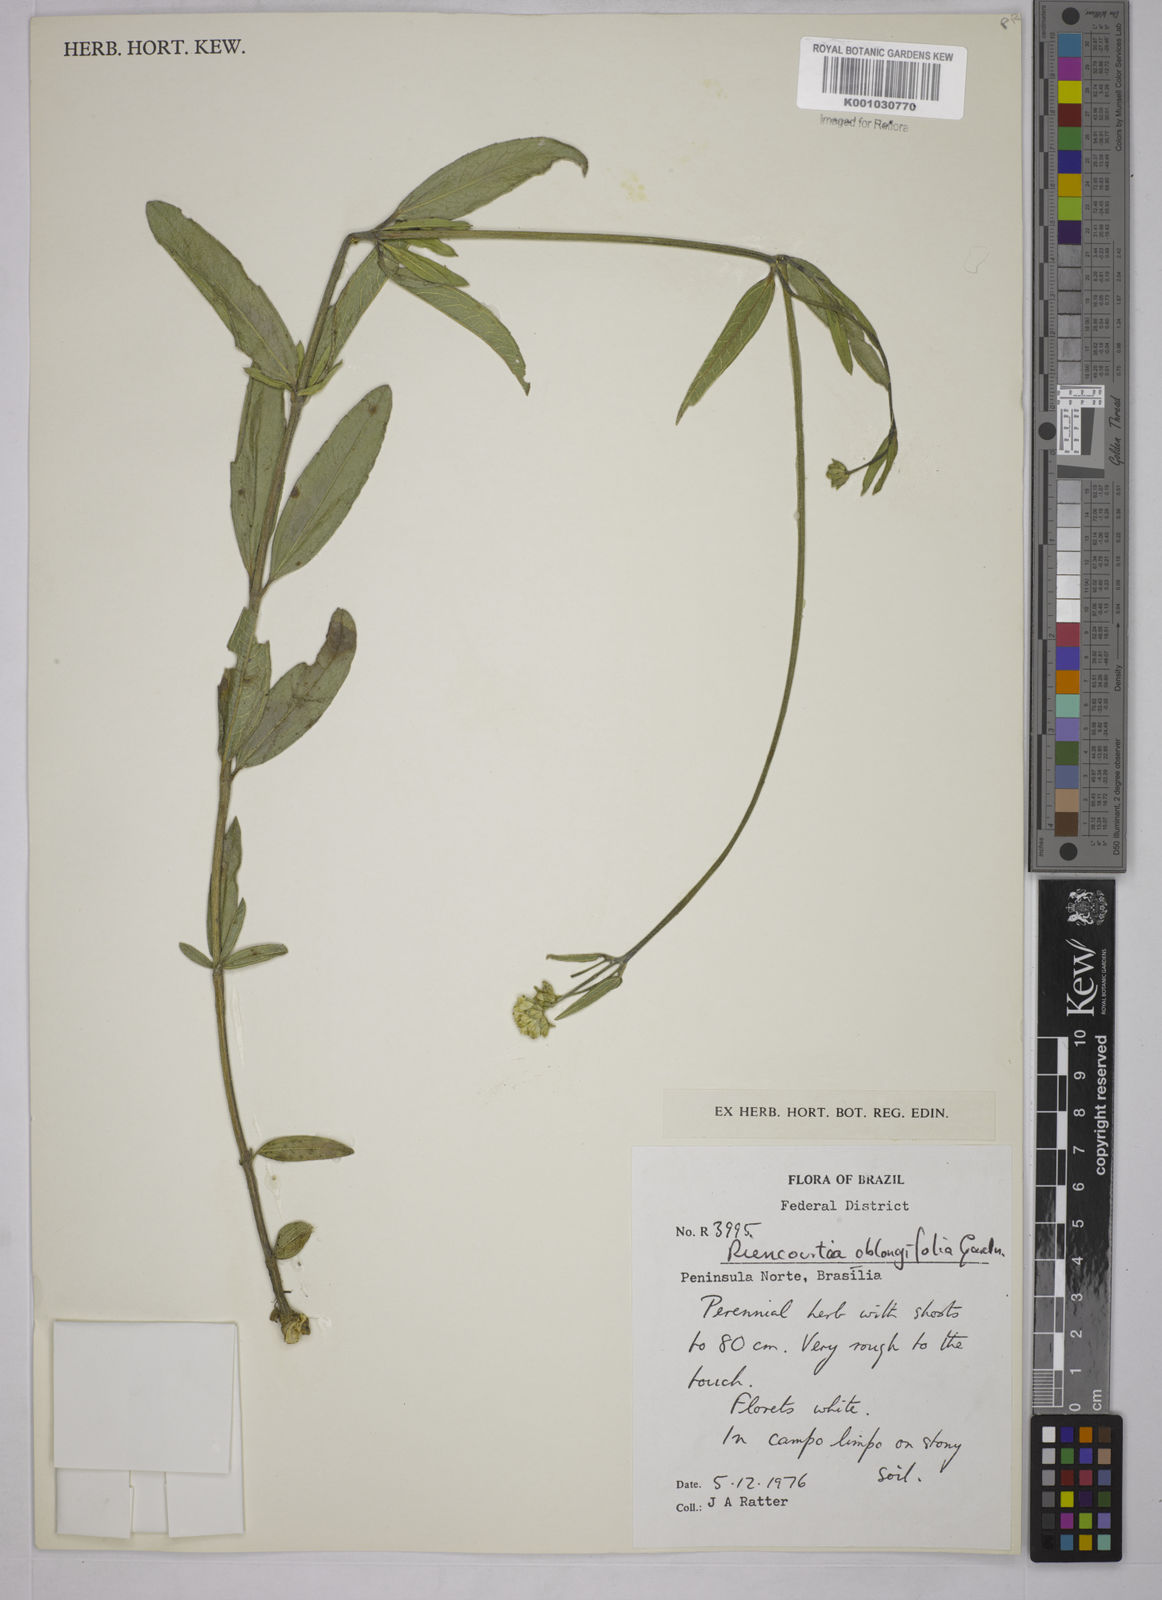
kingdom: Plantae
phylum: Tracheophyta
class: Magnoliopsida
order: Asterales
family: Asteraceae
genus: Riencourtia
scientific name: Riencourtia oblongifolia
